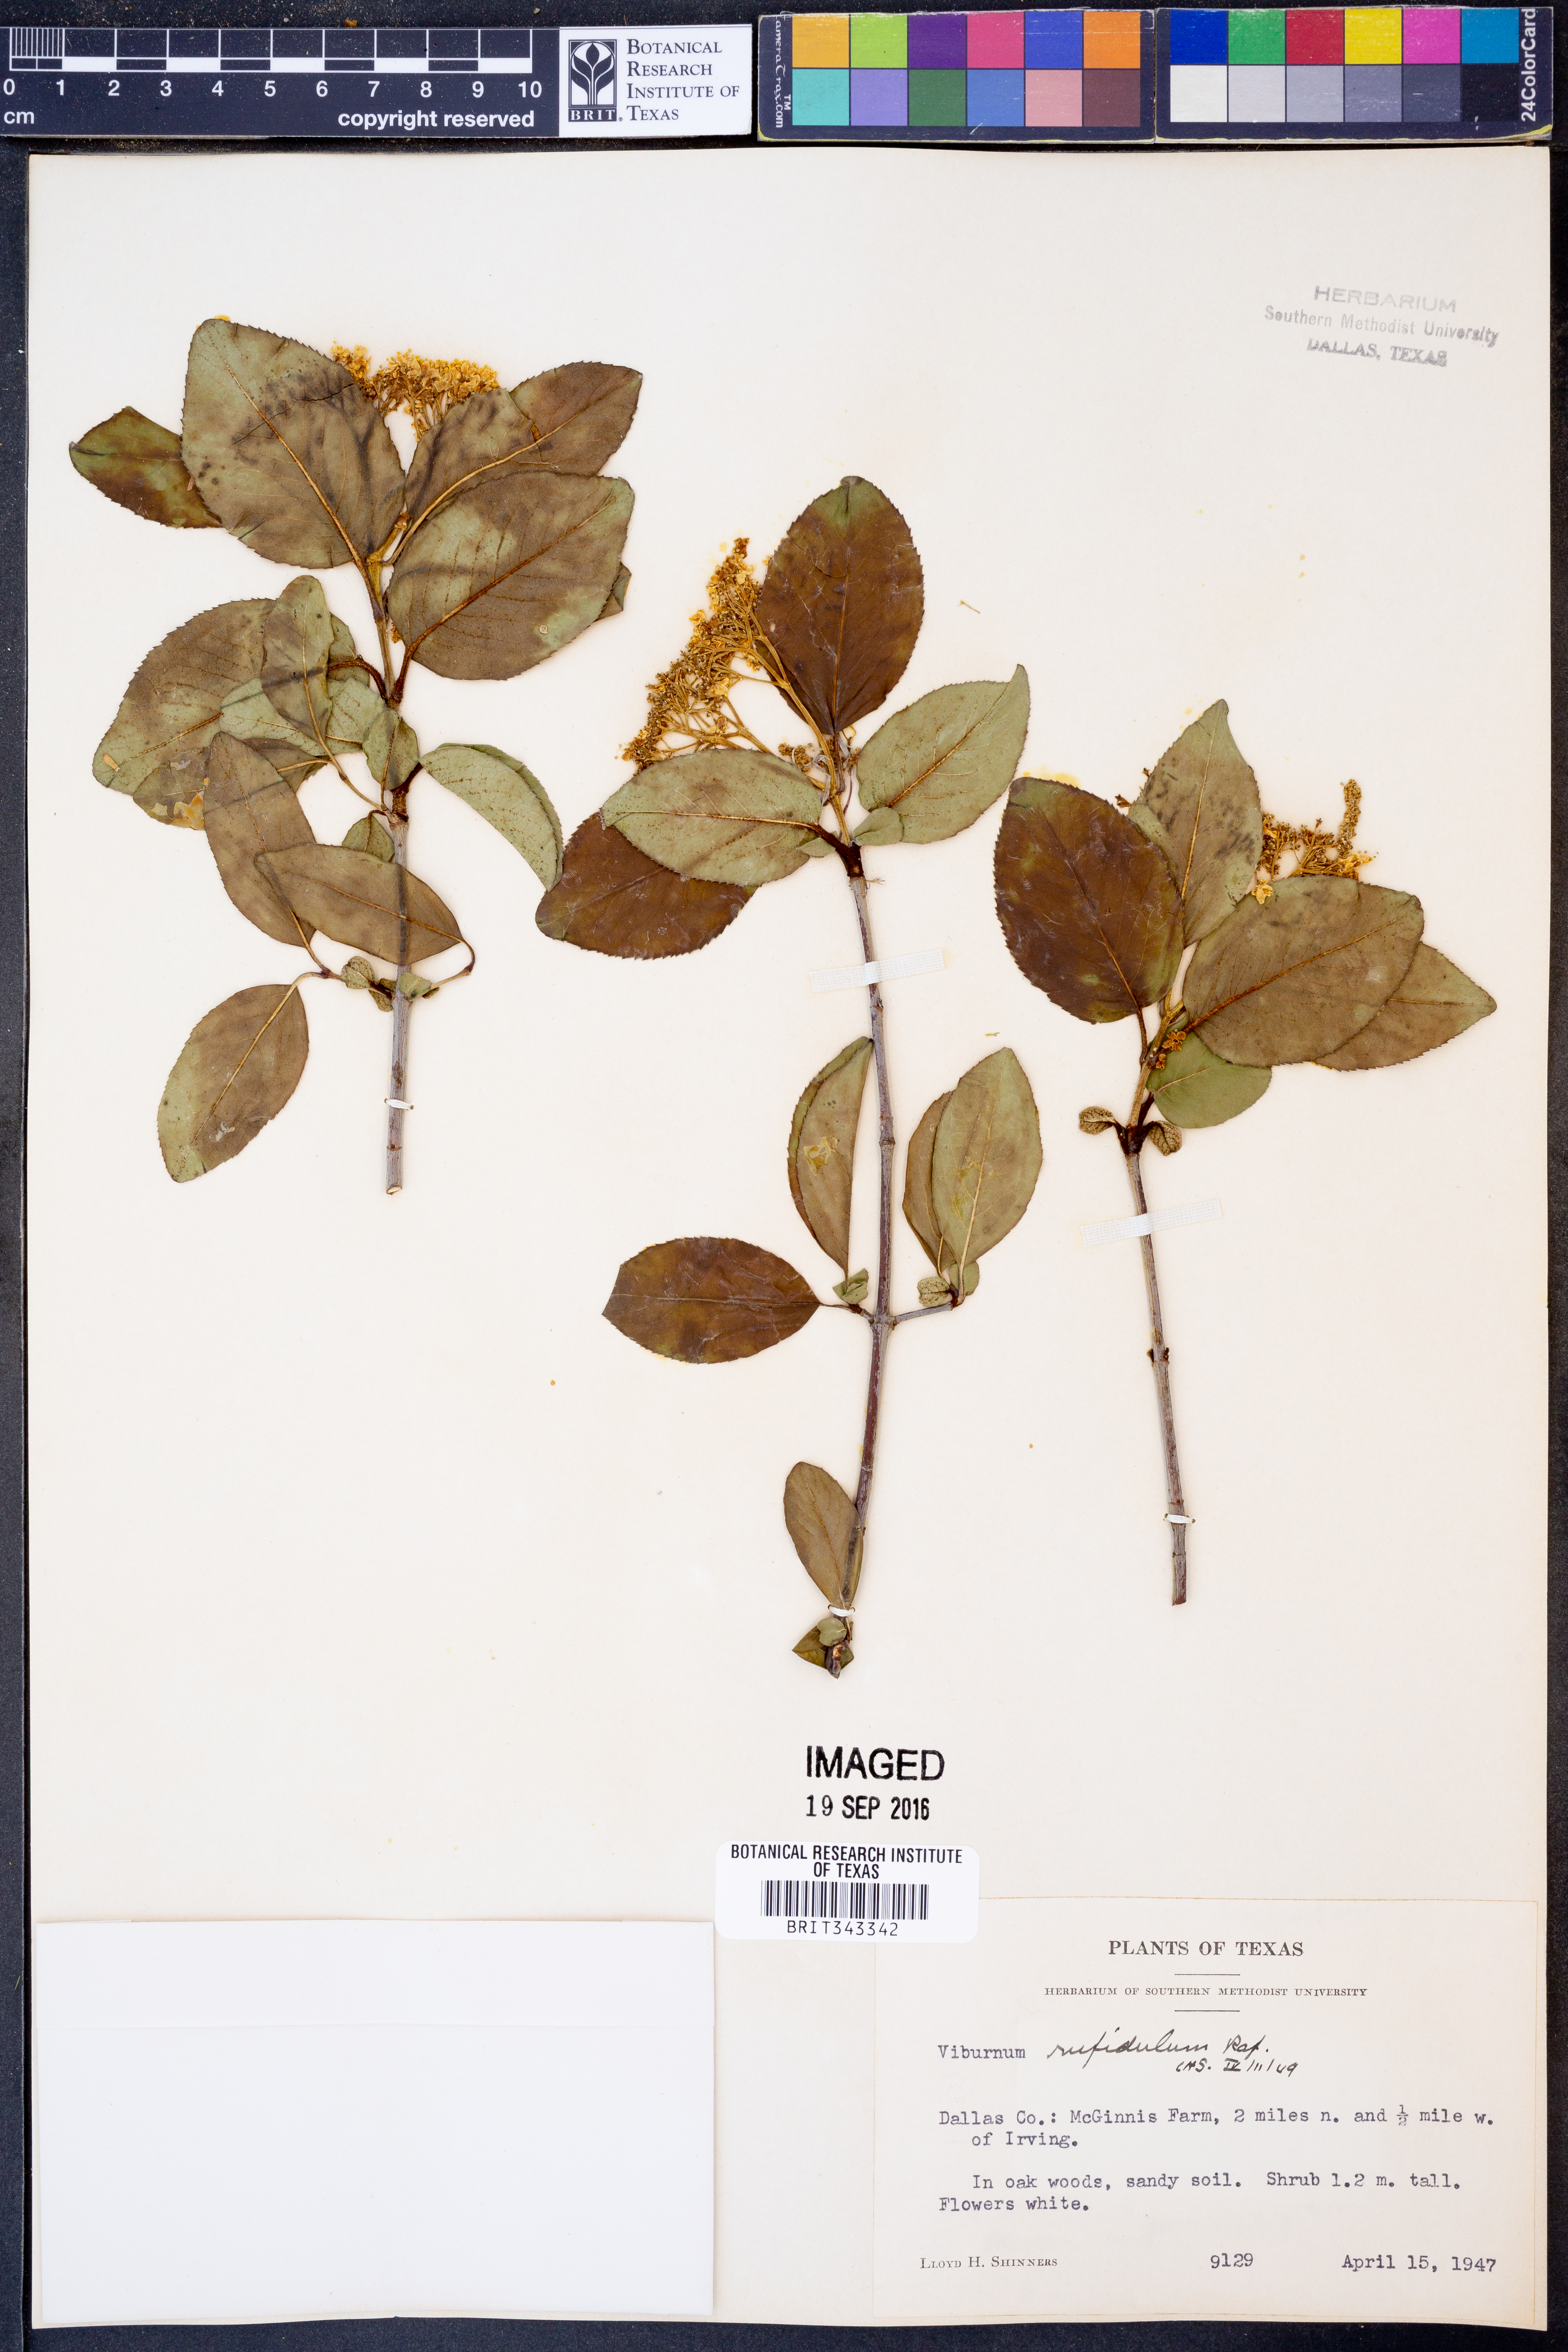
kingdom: Plantae
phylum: Tracheophyta
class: Magnoliopsida
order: Dipsacales
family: Viburnaceae
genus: Viburnum
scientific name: Viburnum rufidulum
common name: Blue haw
